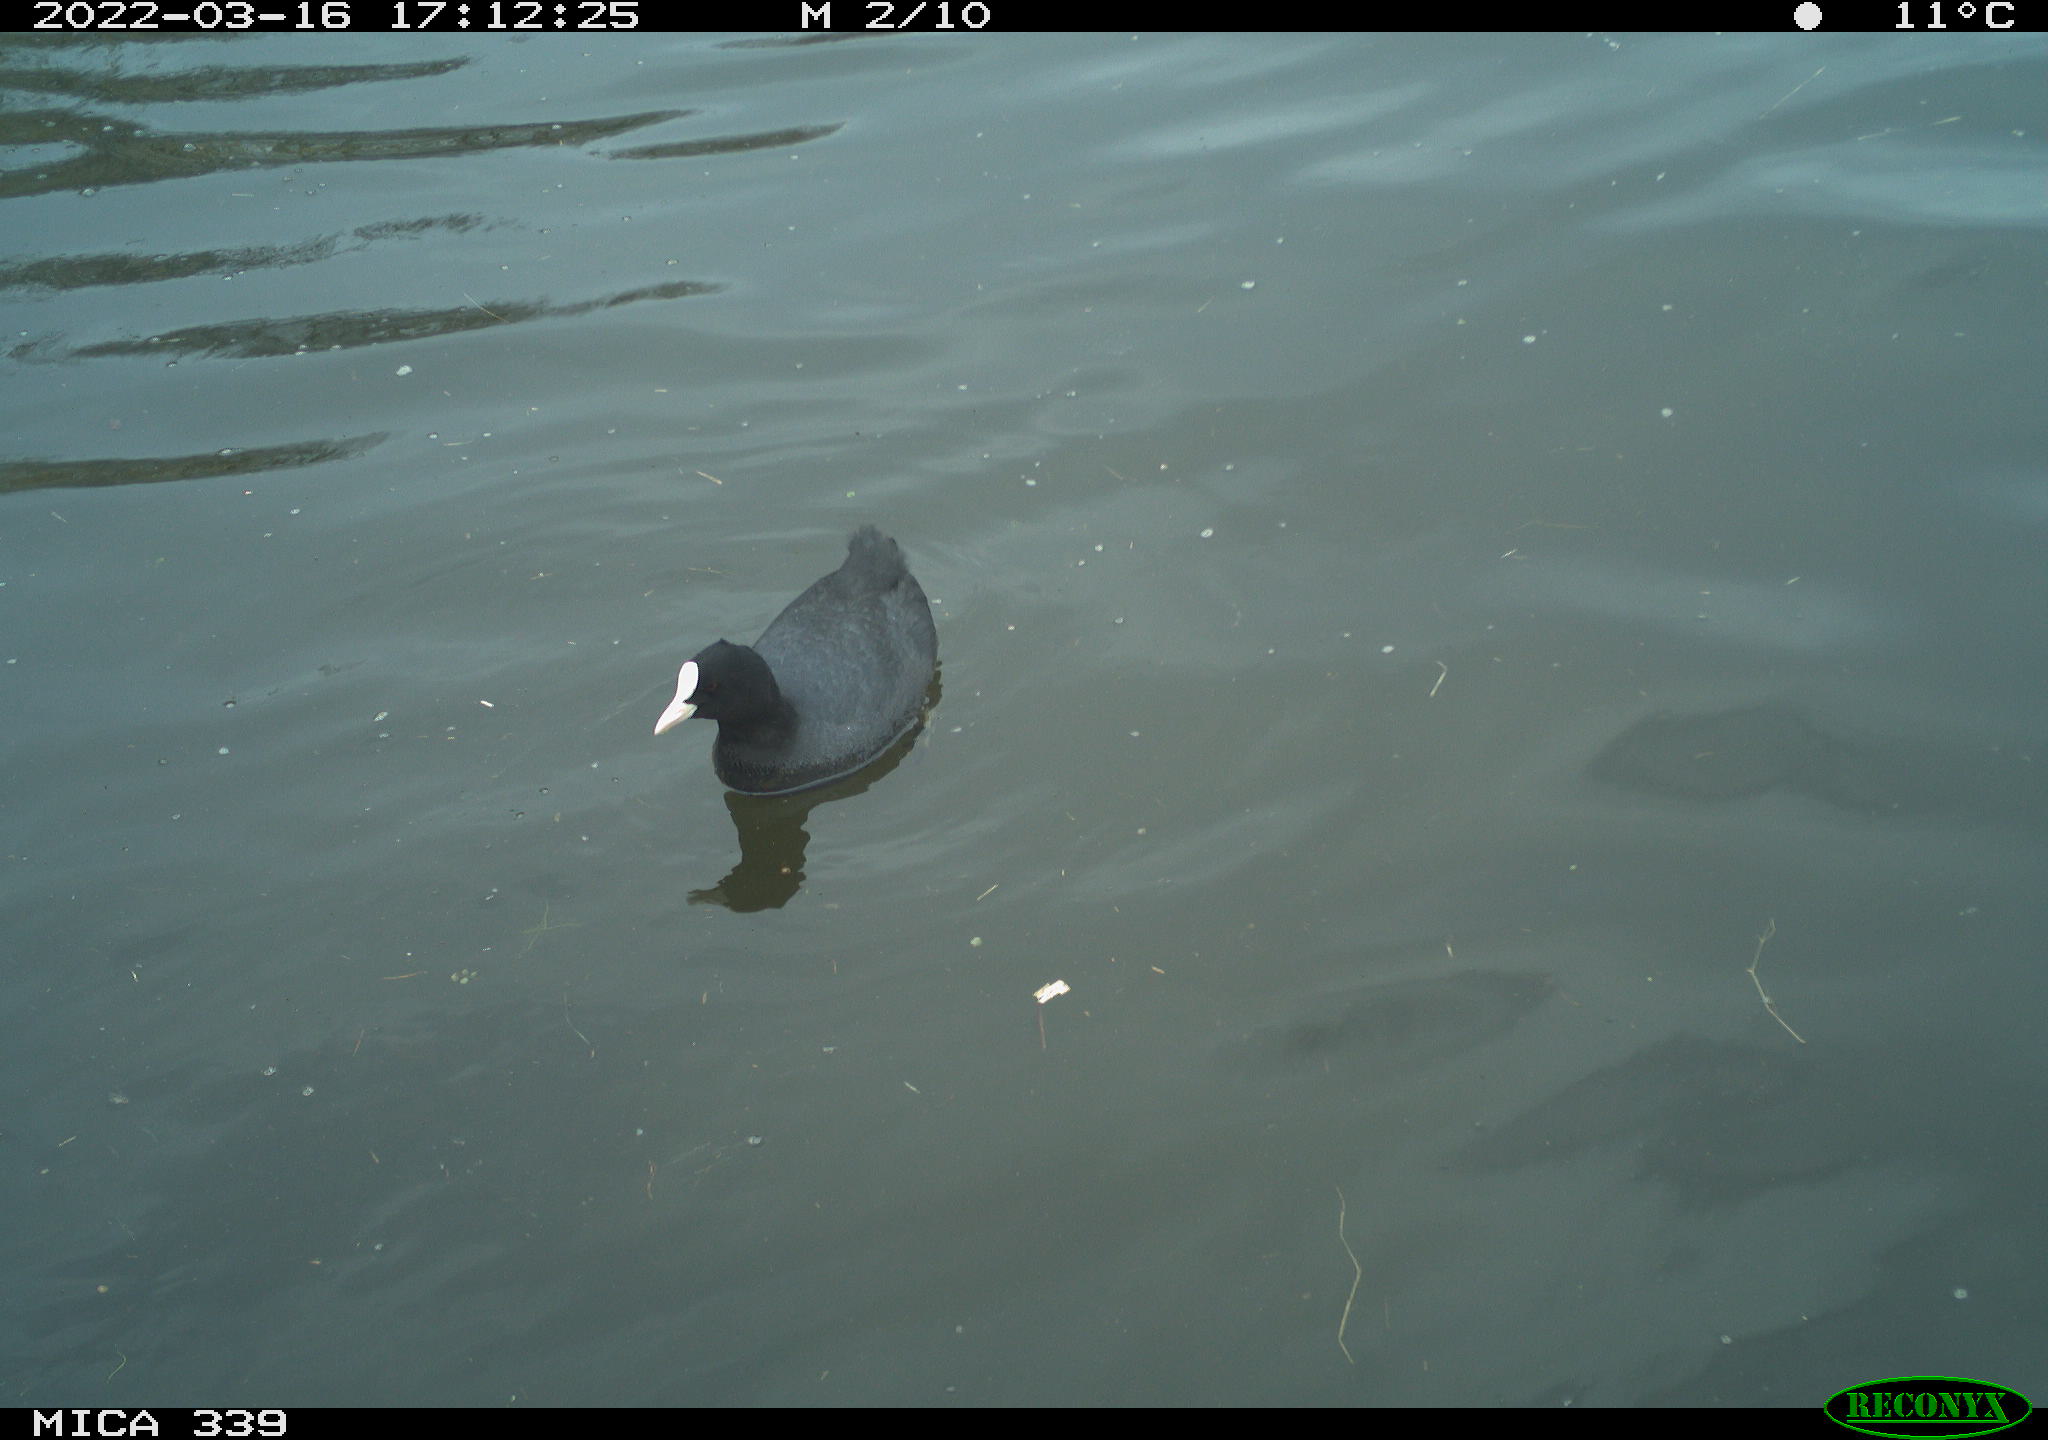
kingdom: Animalia
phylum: Chordata
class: Aves
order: Gruiformes
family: Rallidae
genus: Fulica
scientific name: Fulica atra
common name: Eurasian coot
